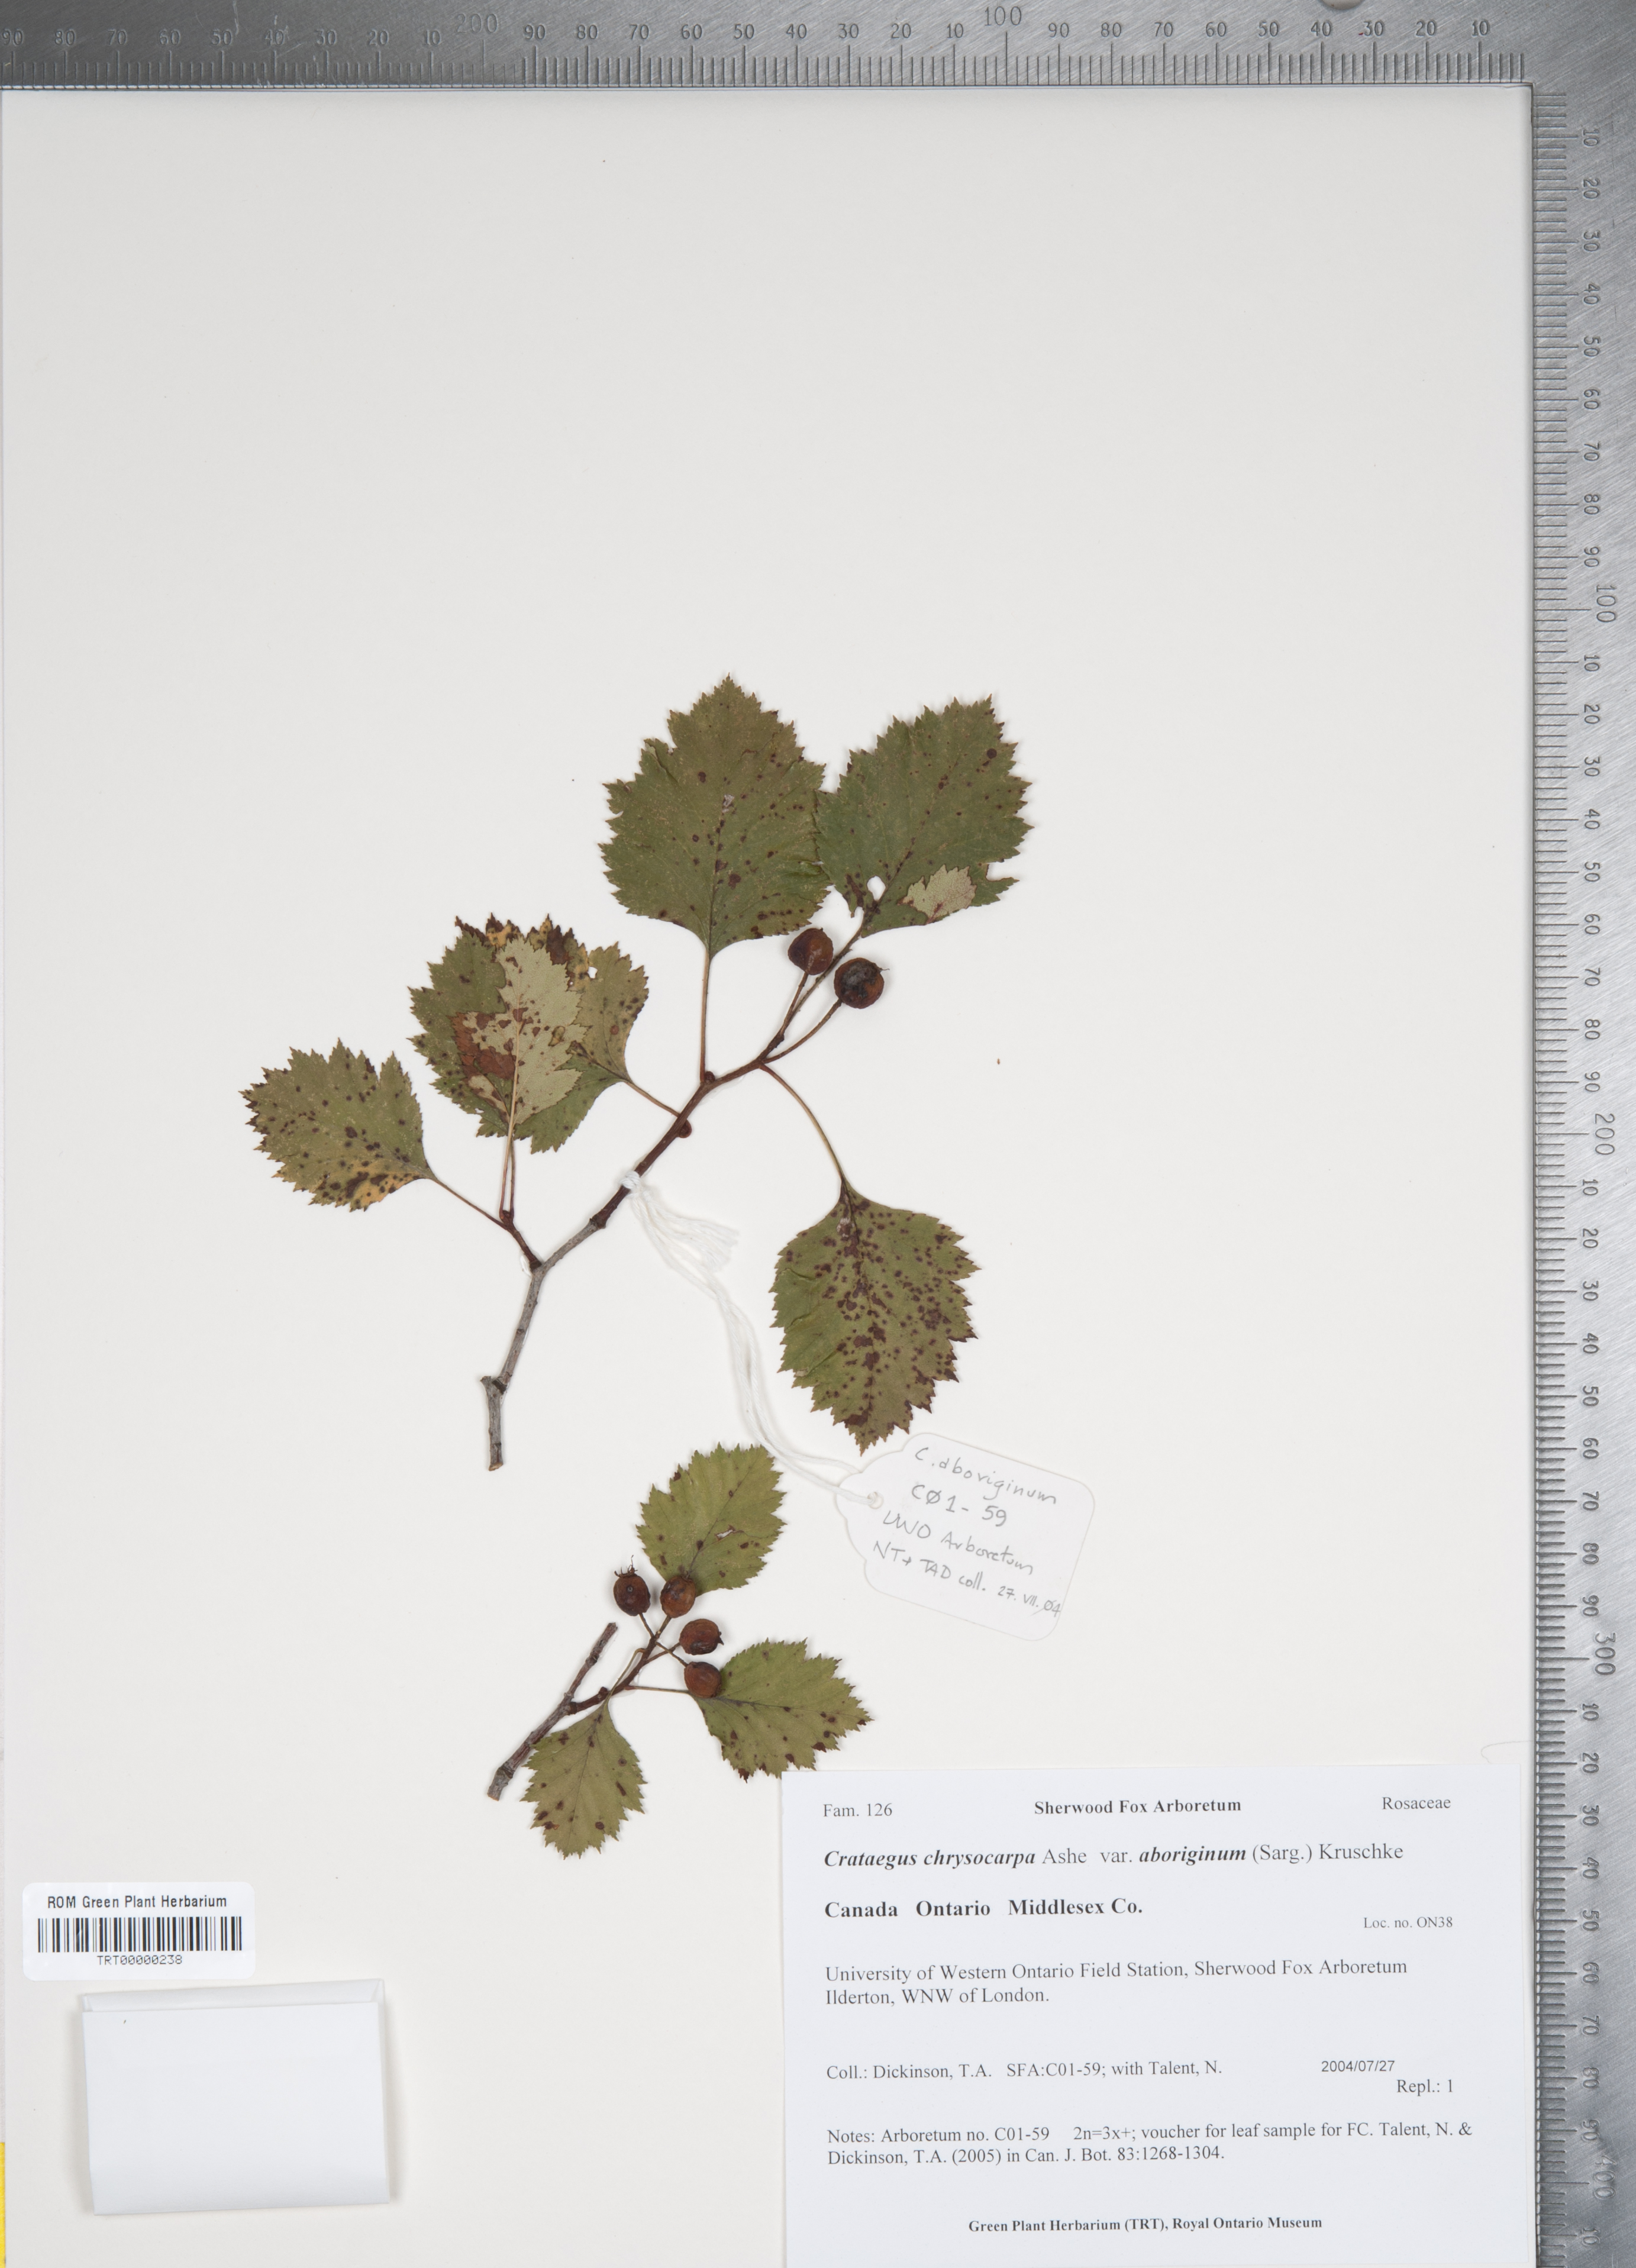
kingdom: Plantae
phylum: Tracheophyta
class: Magnoliopsida
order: Rosales
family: Rosaceae
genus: Crataegus
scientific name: Crataegus chrysocarpa
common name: Fire-berry hawthorn
